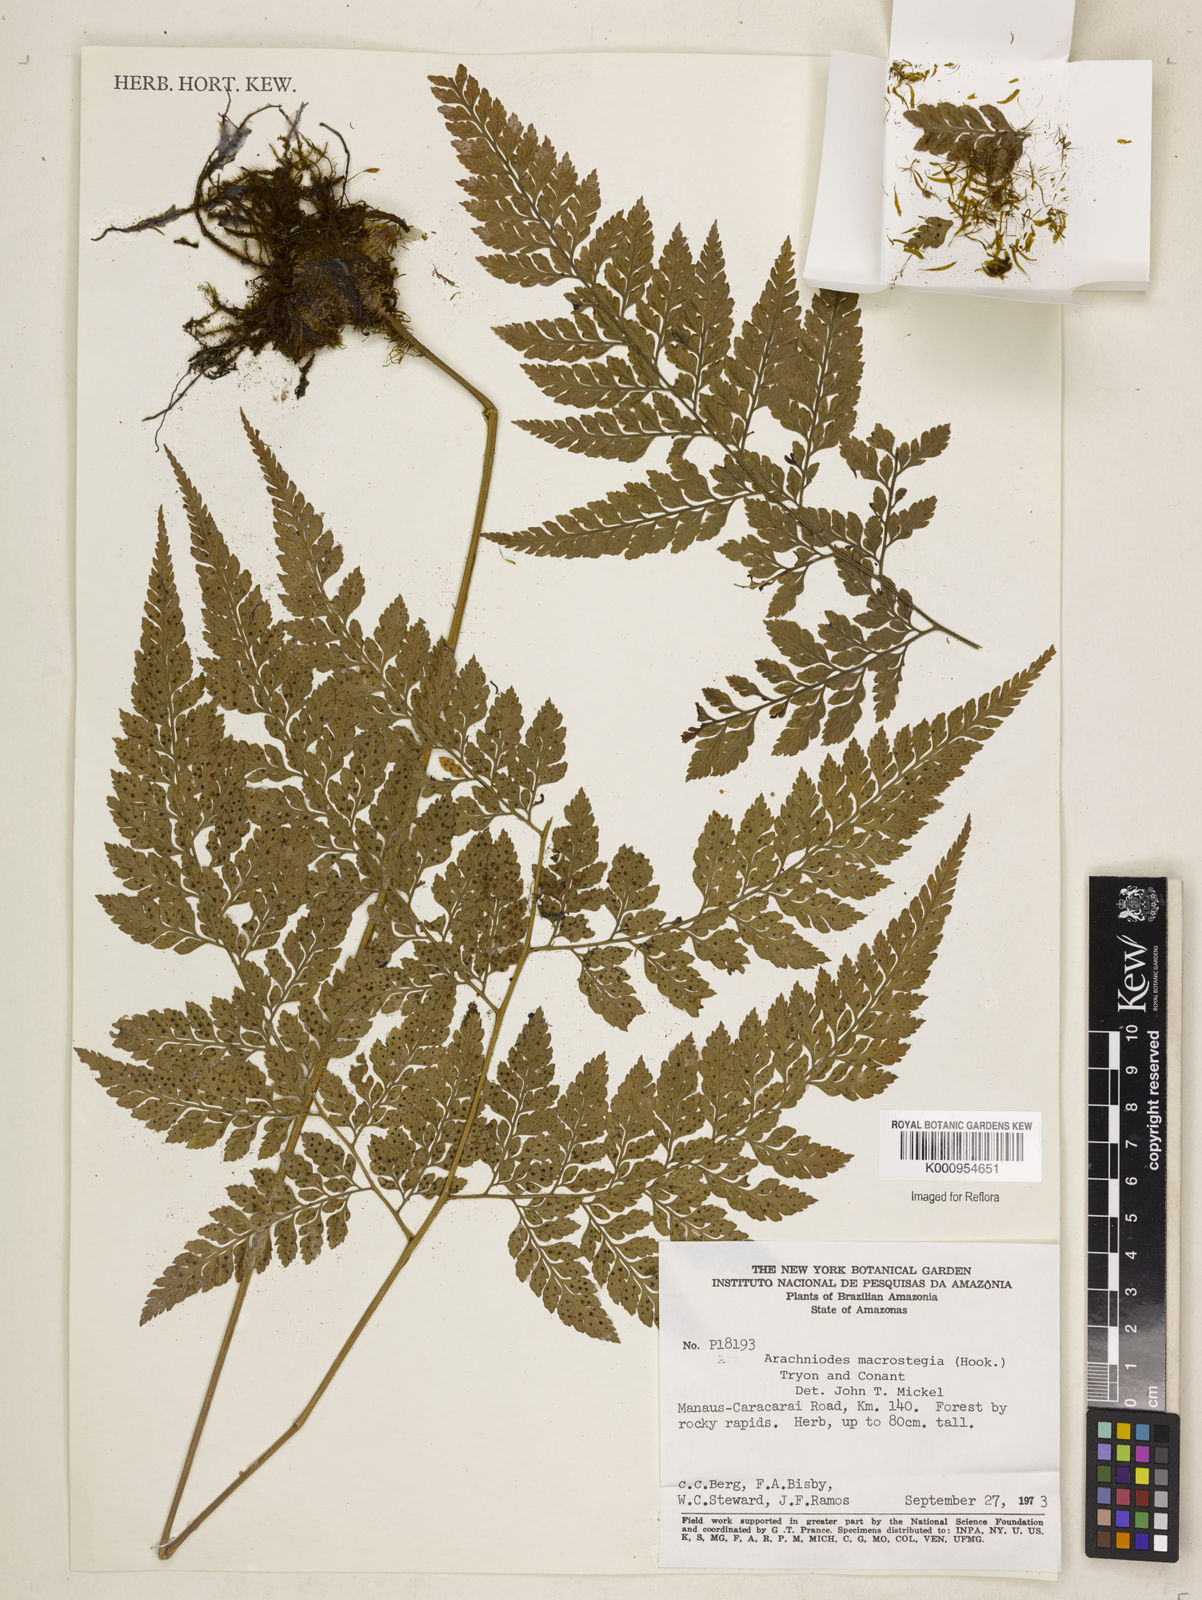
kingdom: Plantae
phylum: Tracheophyta
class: Polypodiopsida
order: Polypodiales
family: Dryopteridaceae
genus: Olfersia
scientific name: Olfersia macrostegia
